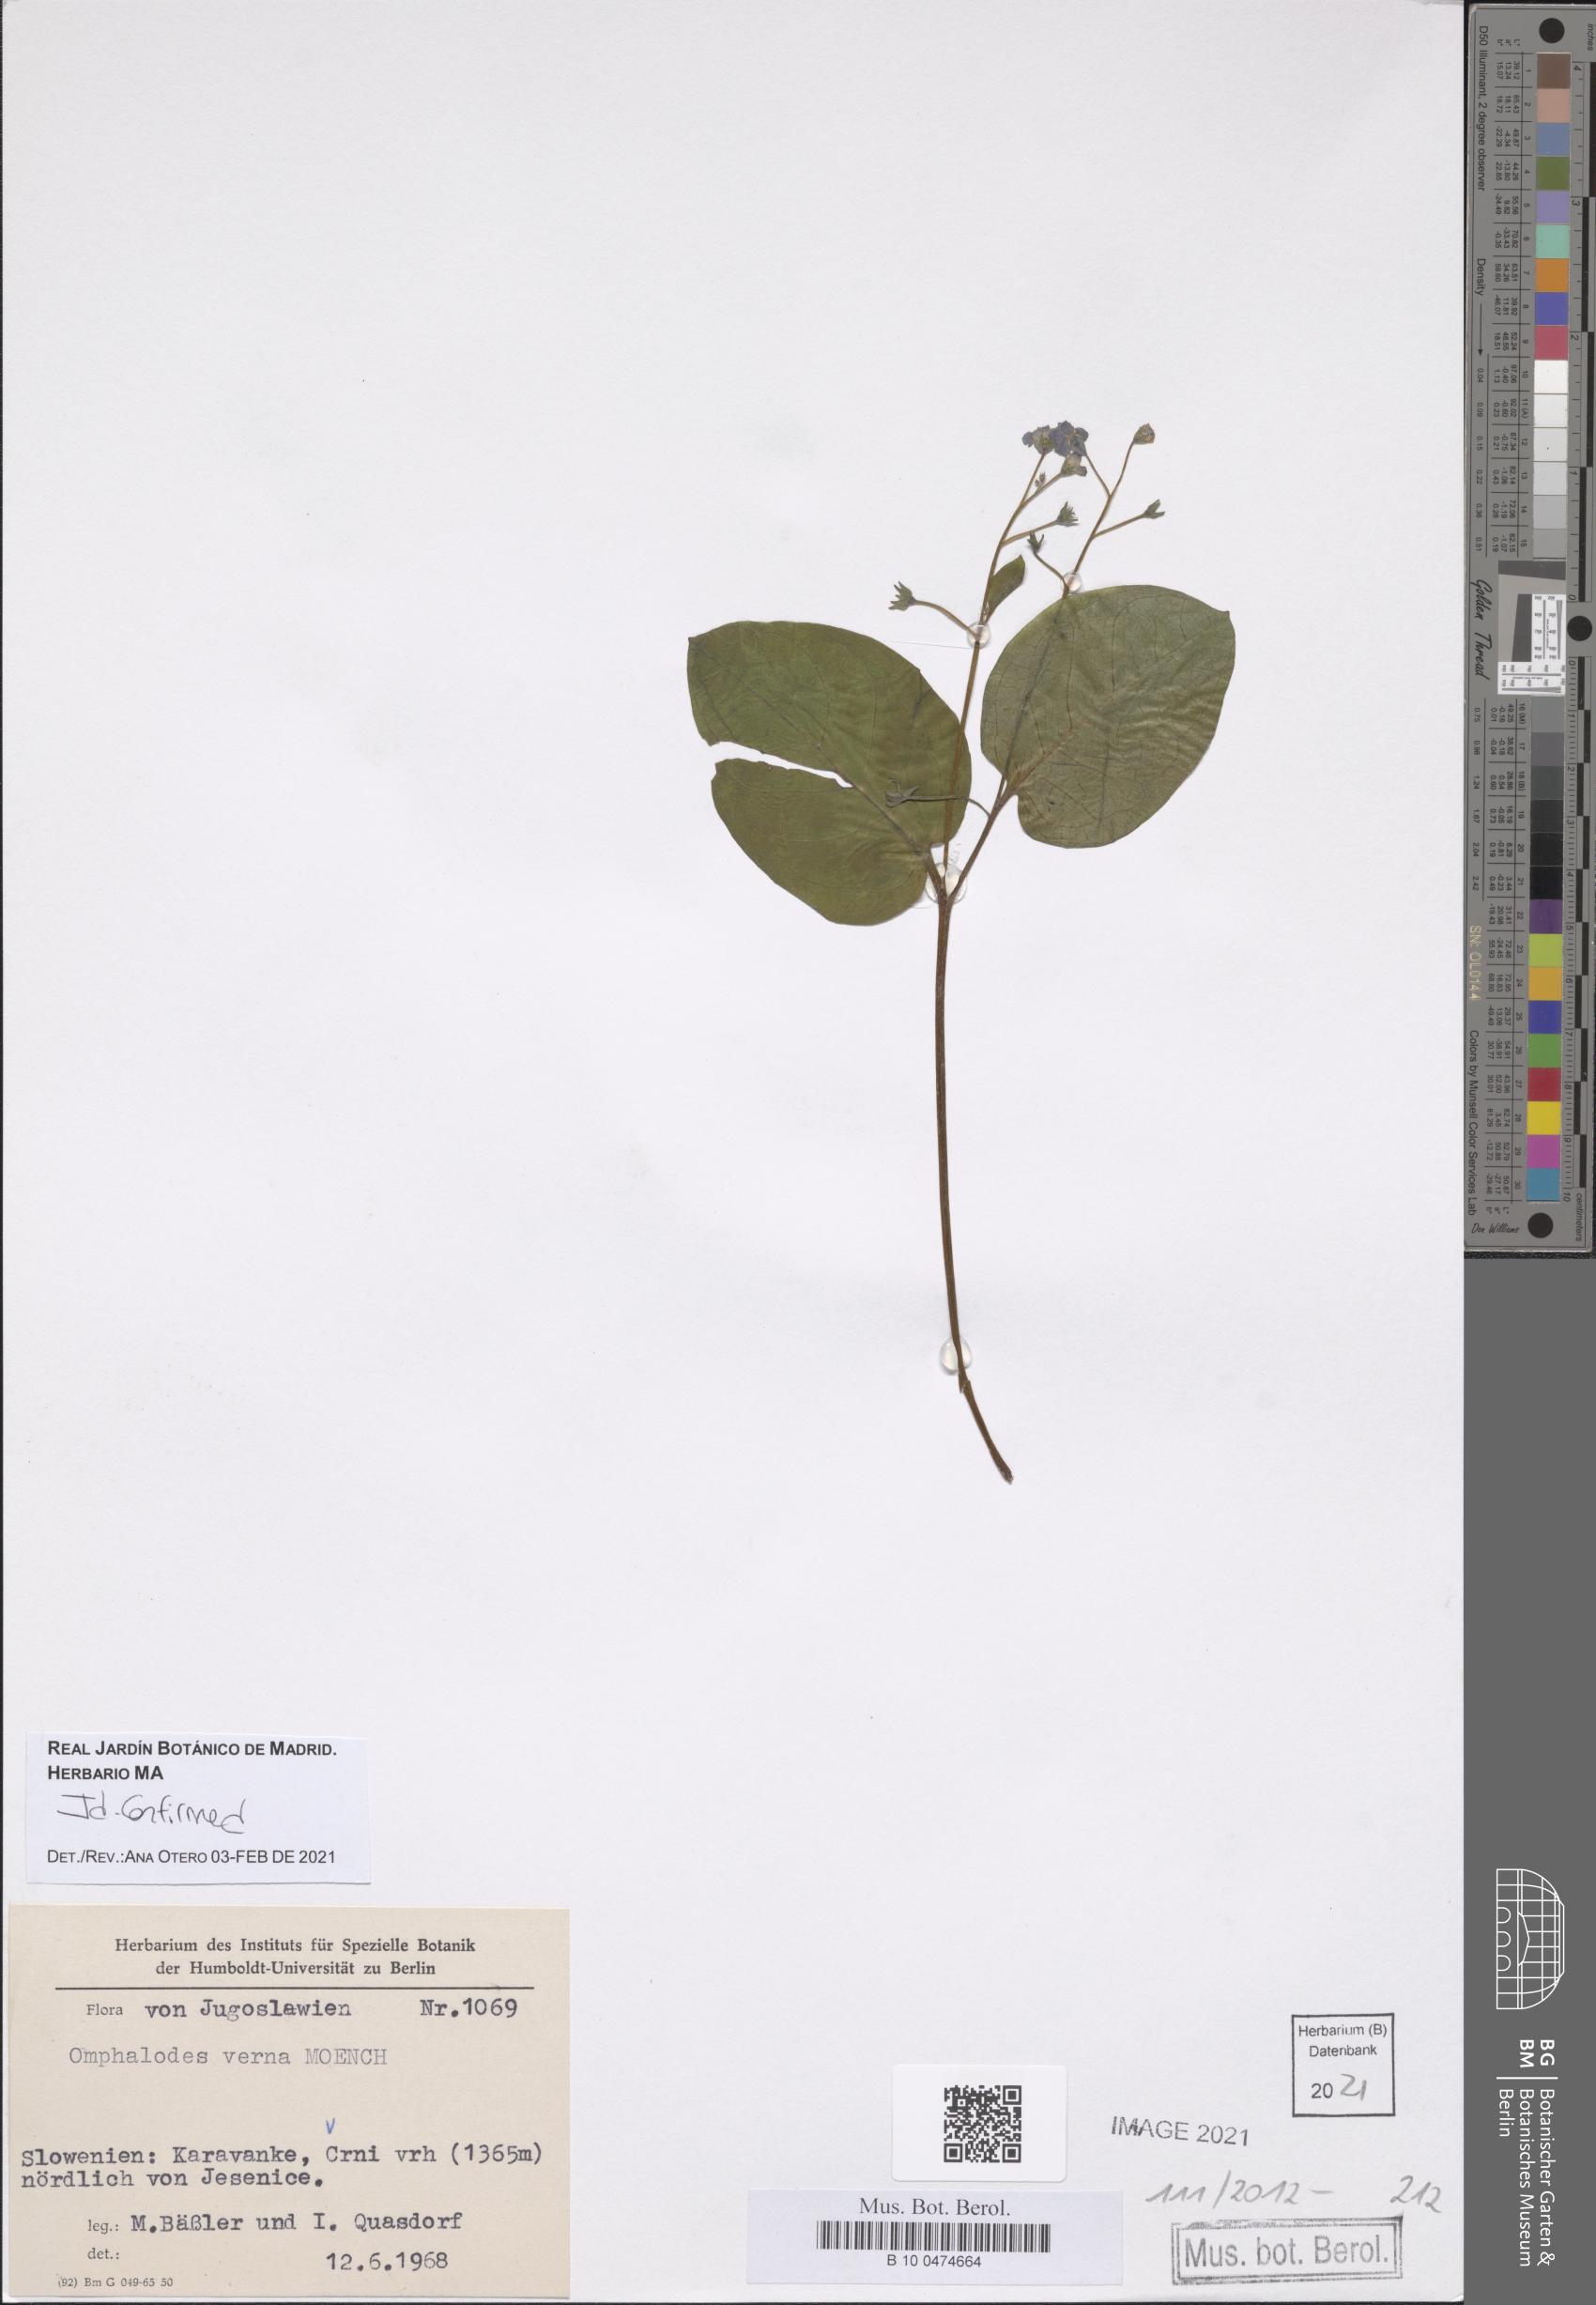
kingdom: Plantae
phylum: Tracheophyta
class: Magnoliopsida
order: Boraginales
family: Boraginaceae
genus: Omphalodes
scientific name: Omphalodes verna
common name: Blue-eyed-mary
